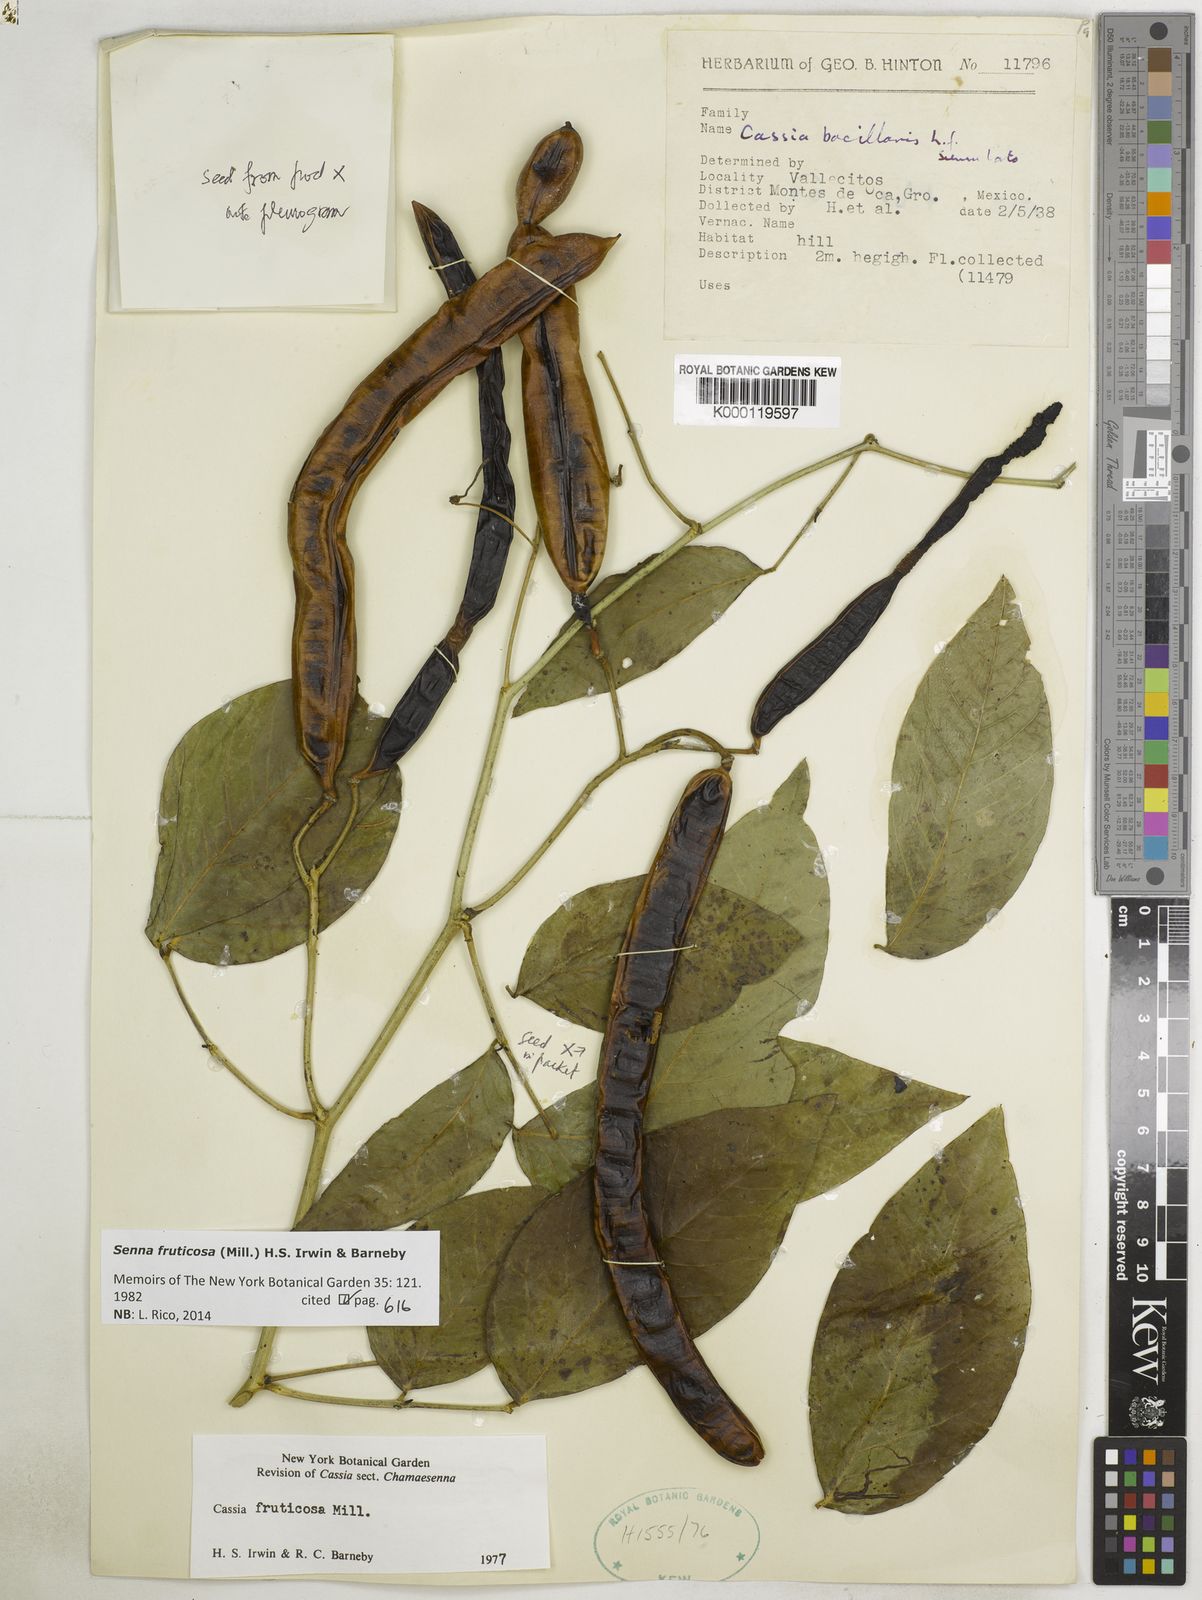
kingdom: Plantae
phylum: Tracheophyta
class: Magnoliopsida
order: Fabales
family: Fabaceae
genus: Senna
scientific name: Senna fruticosa
